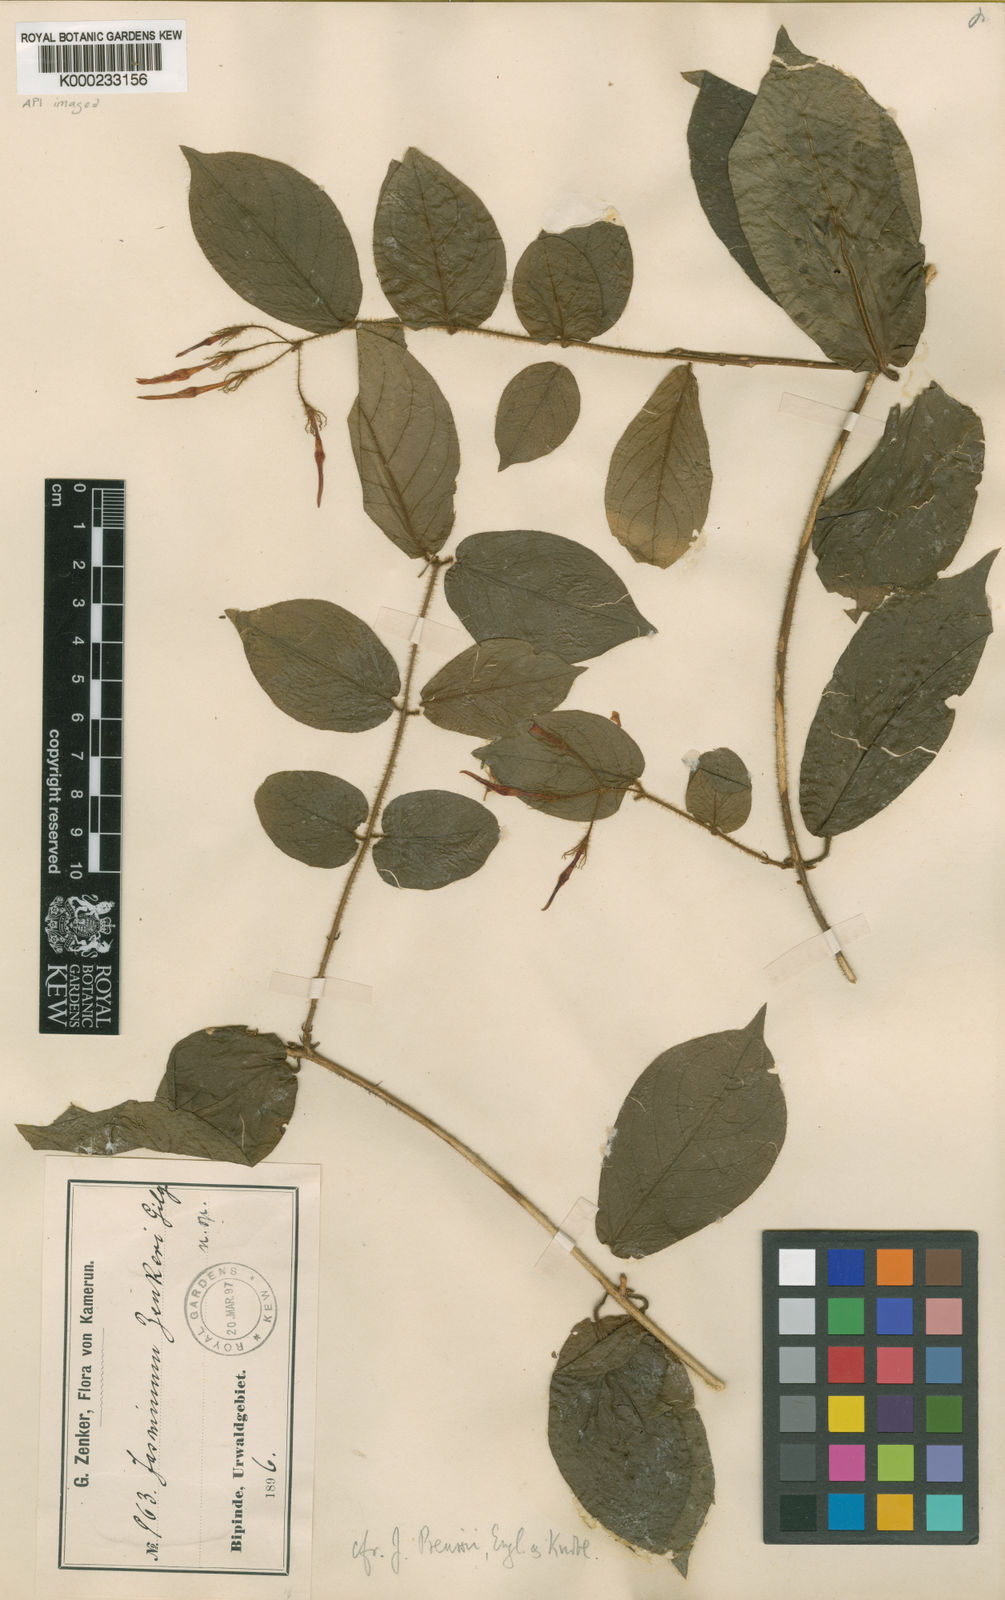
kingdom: Plantae
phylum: Tracheophyta
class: Magnoliopsida
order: Lamiales
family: Oleaceae
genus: Jasminum
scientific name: Jasminum preussii
